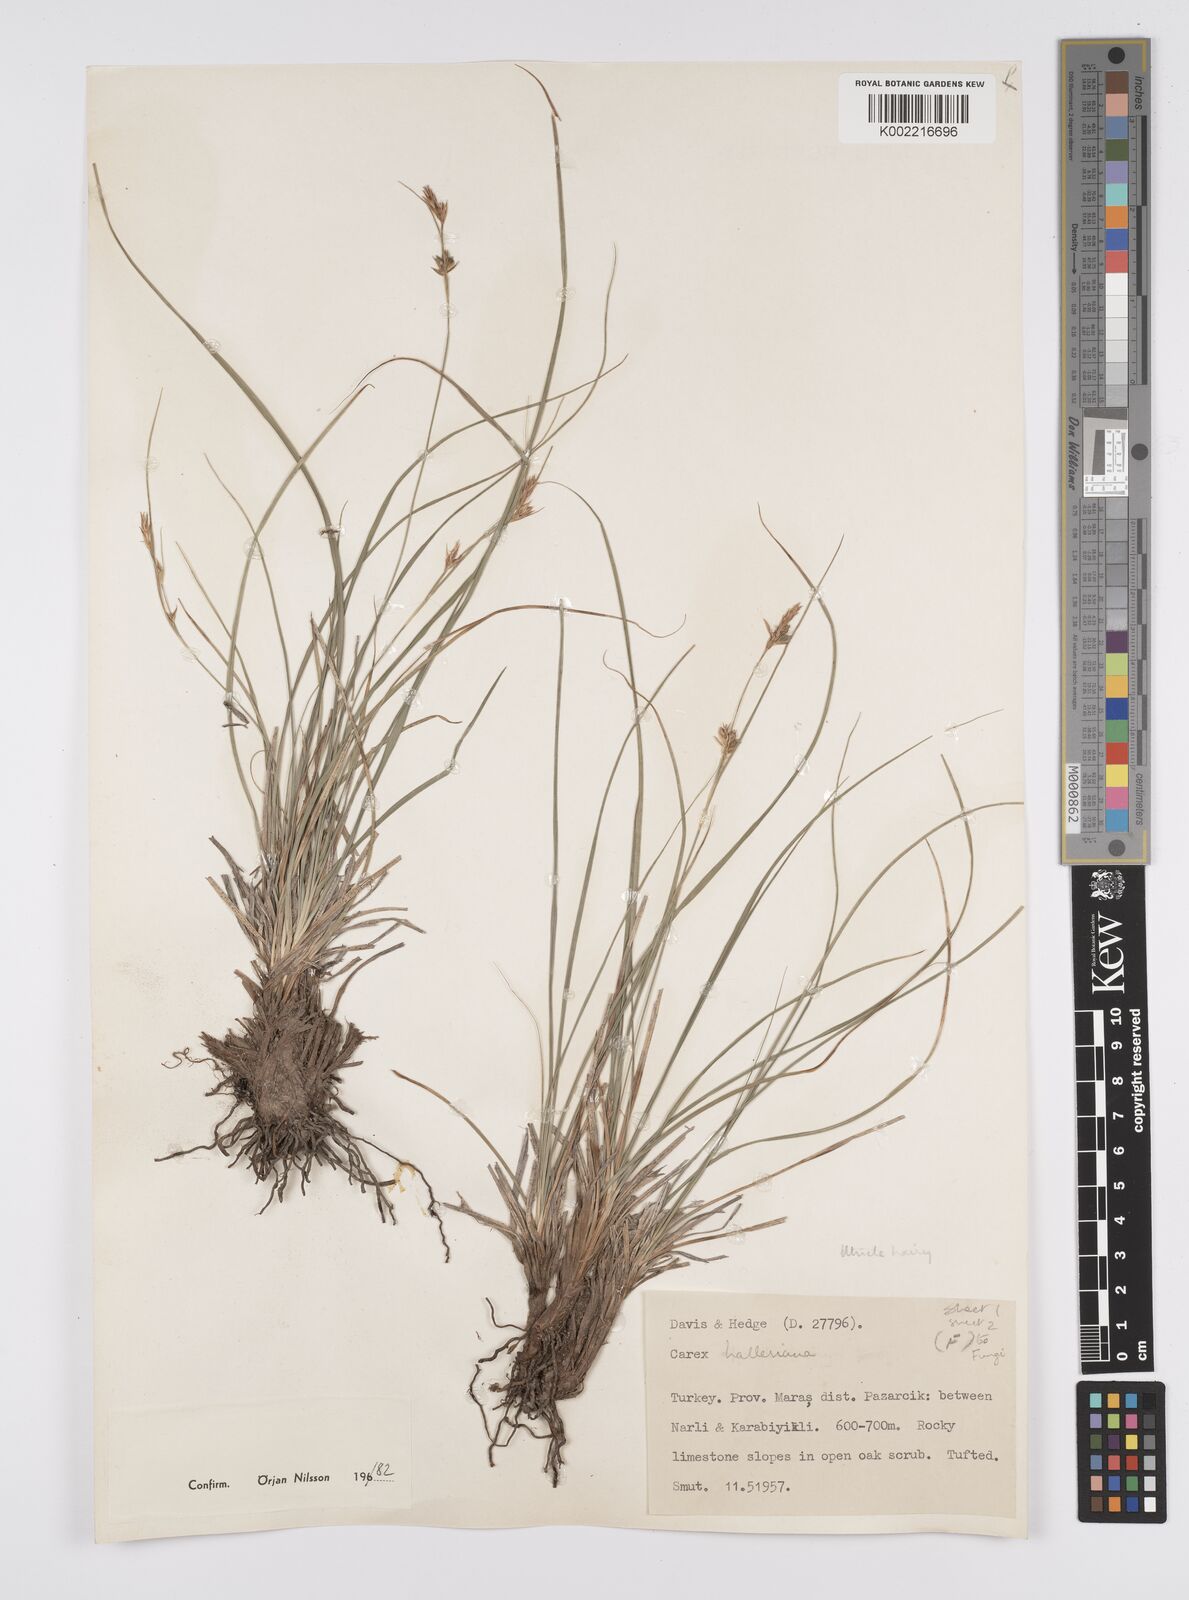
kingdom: Plantae
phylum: Tracheophyta
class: Liliopsida
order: Poales
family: Cyperaceae
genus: Carex
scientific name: Carex halleriana
